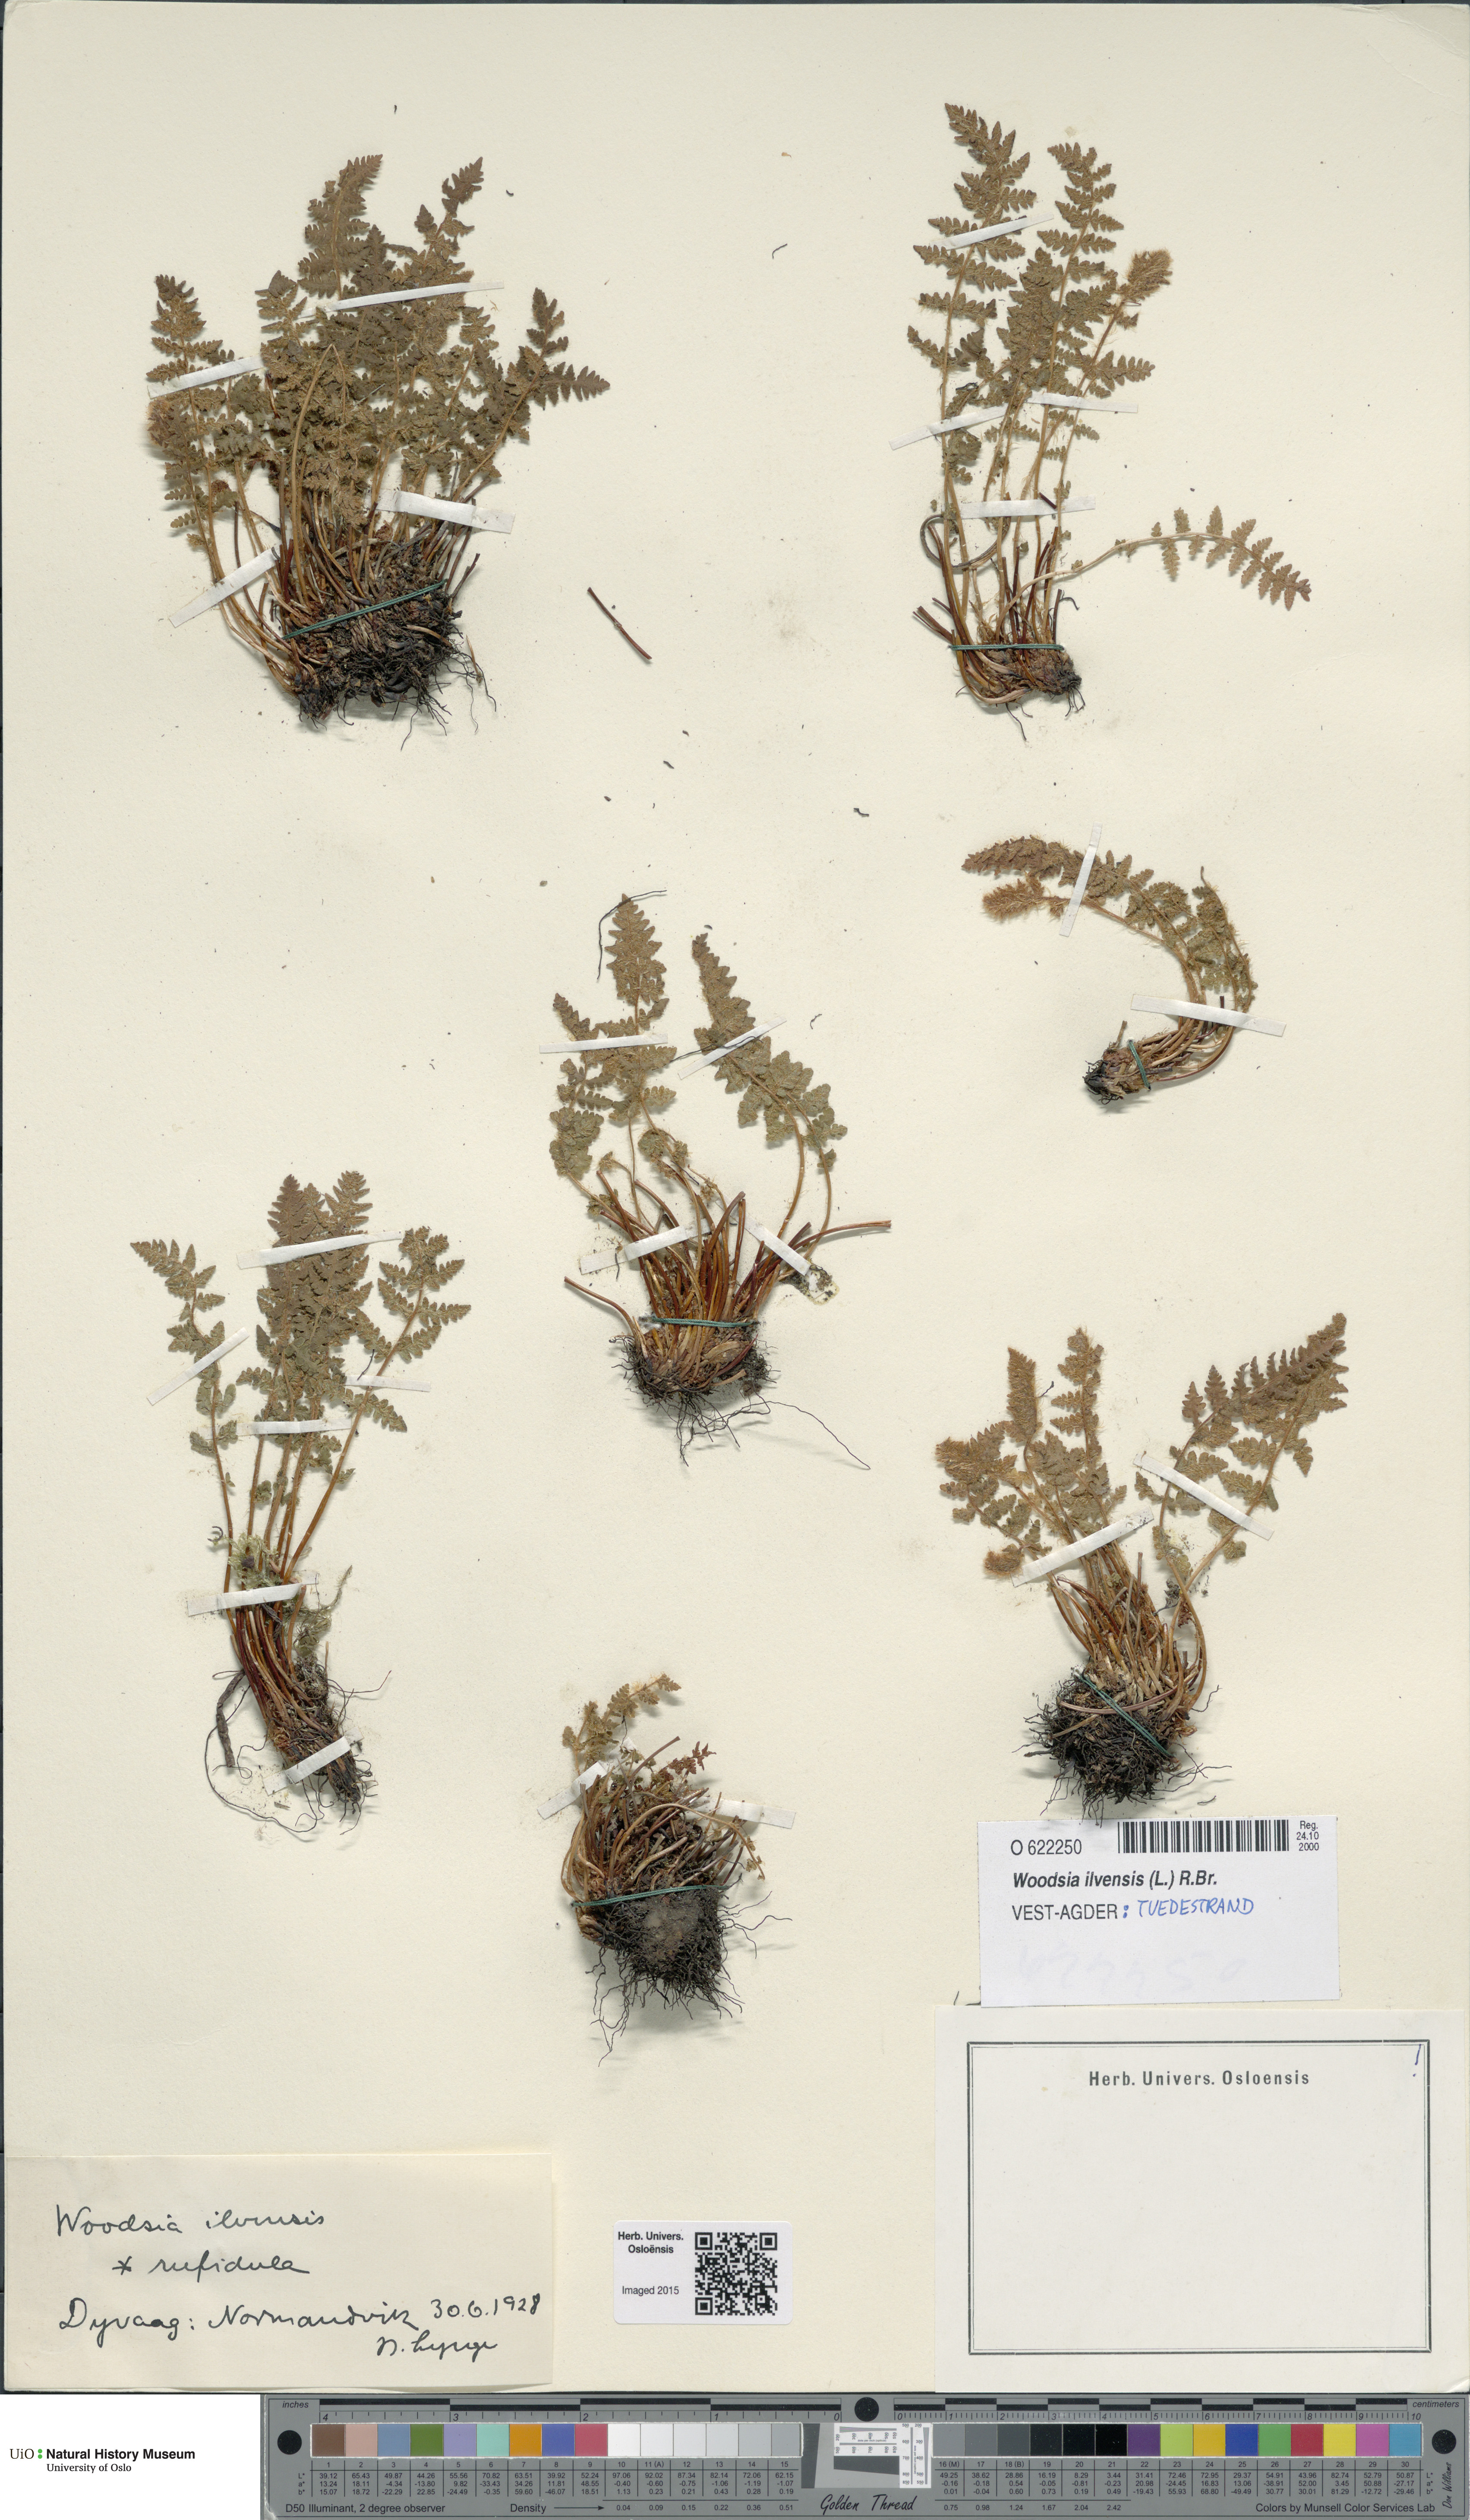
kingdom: Plantae
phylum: Tracheophyta
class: Polypodiopsida
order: Polypodiales
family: Woodsiaceae
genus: Woodsia
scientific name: Woodsia ilvensis
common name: Fragrant woodsia
